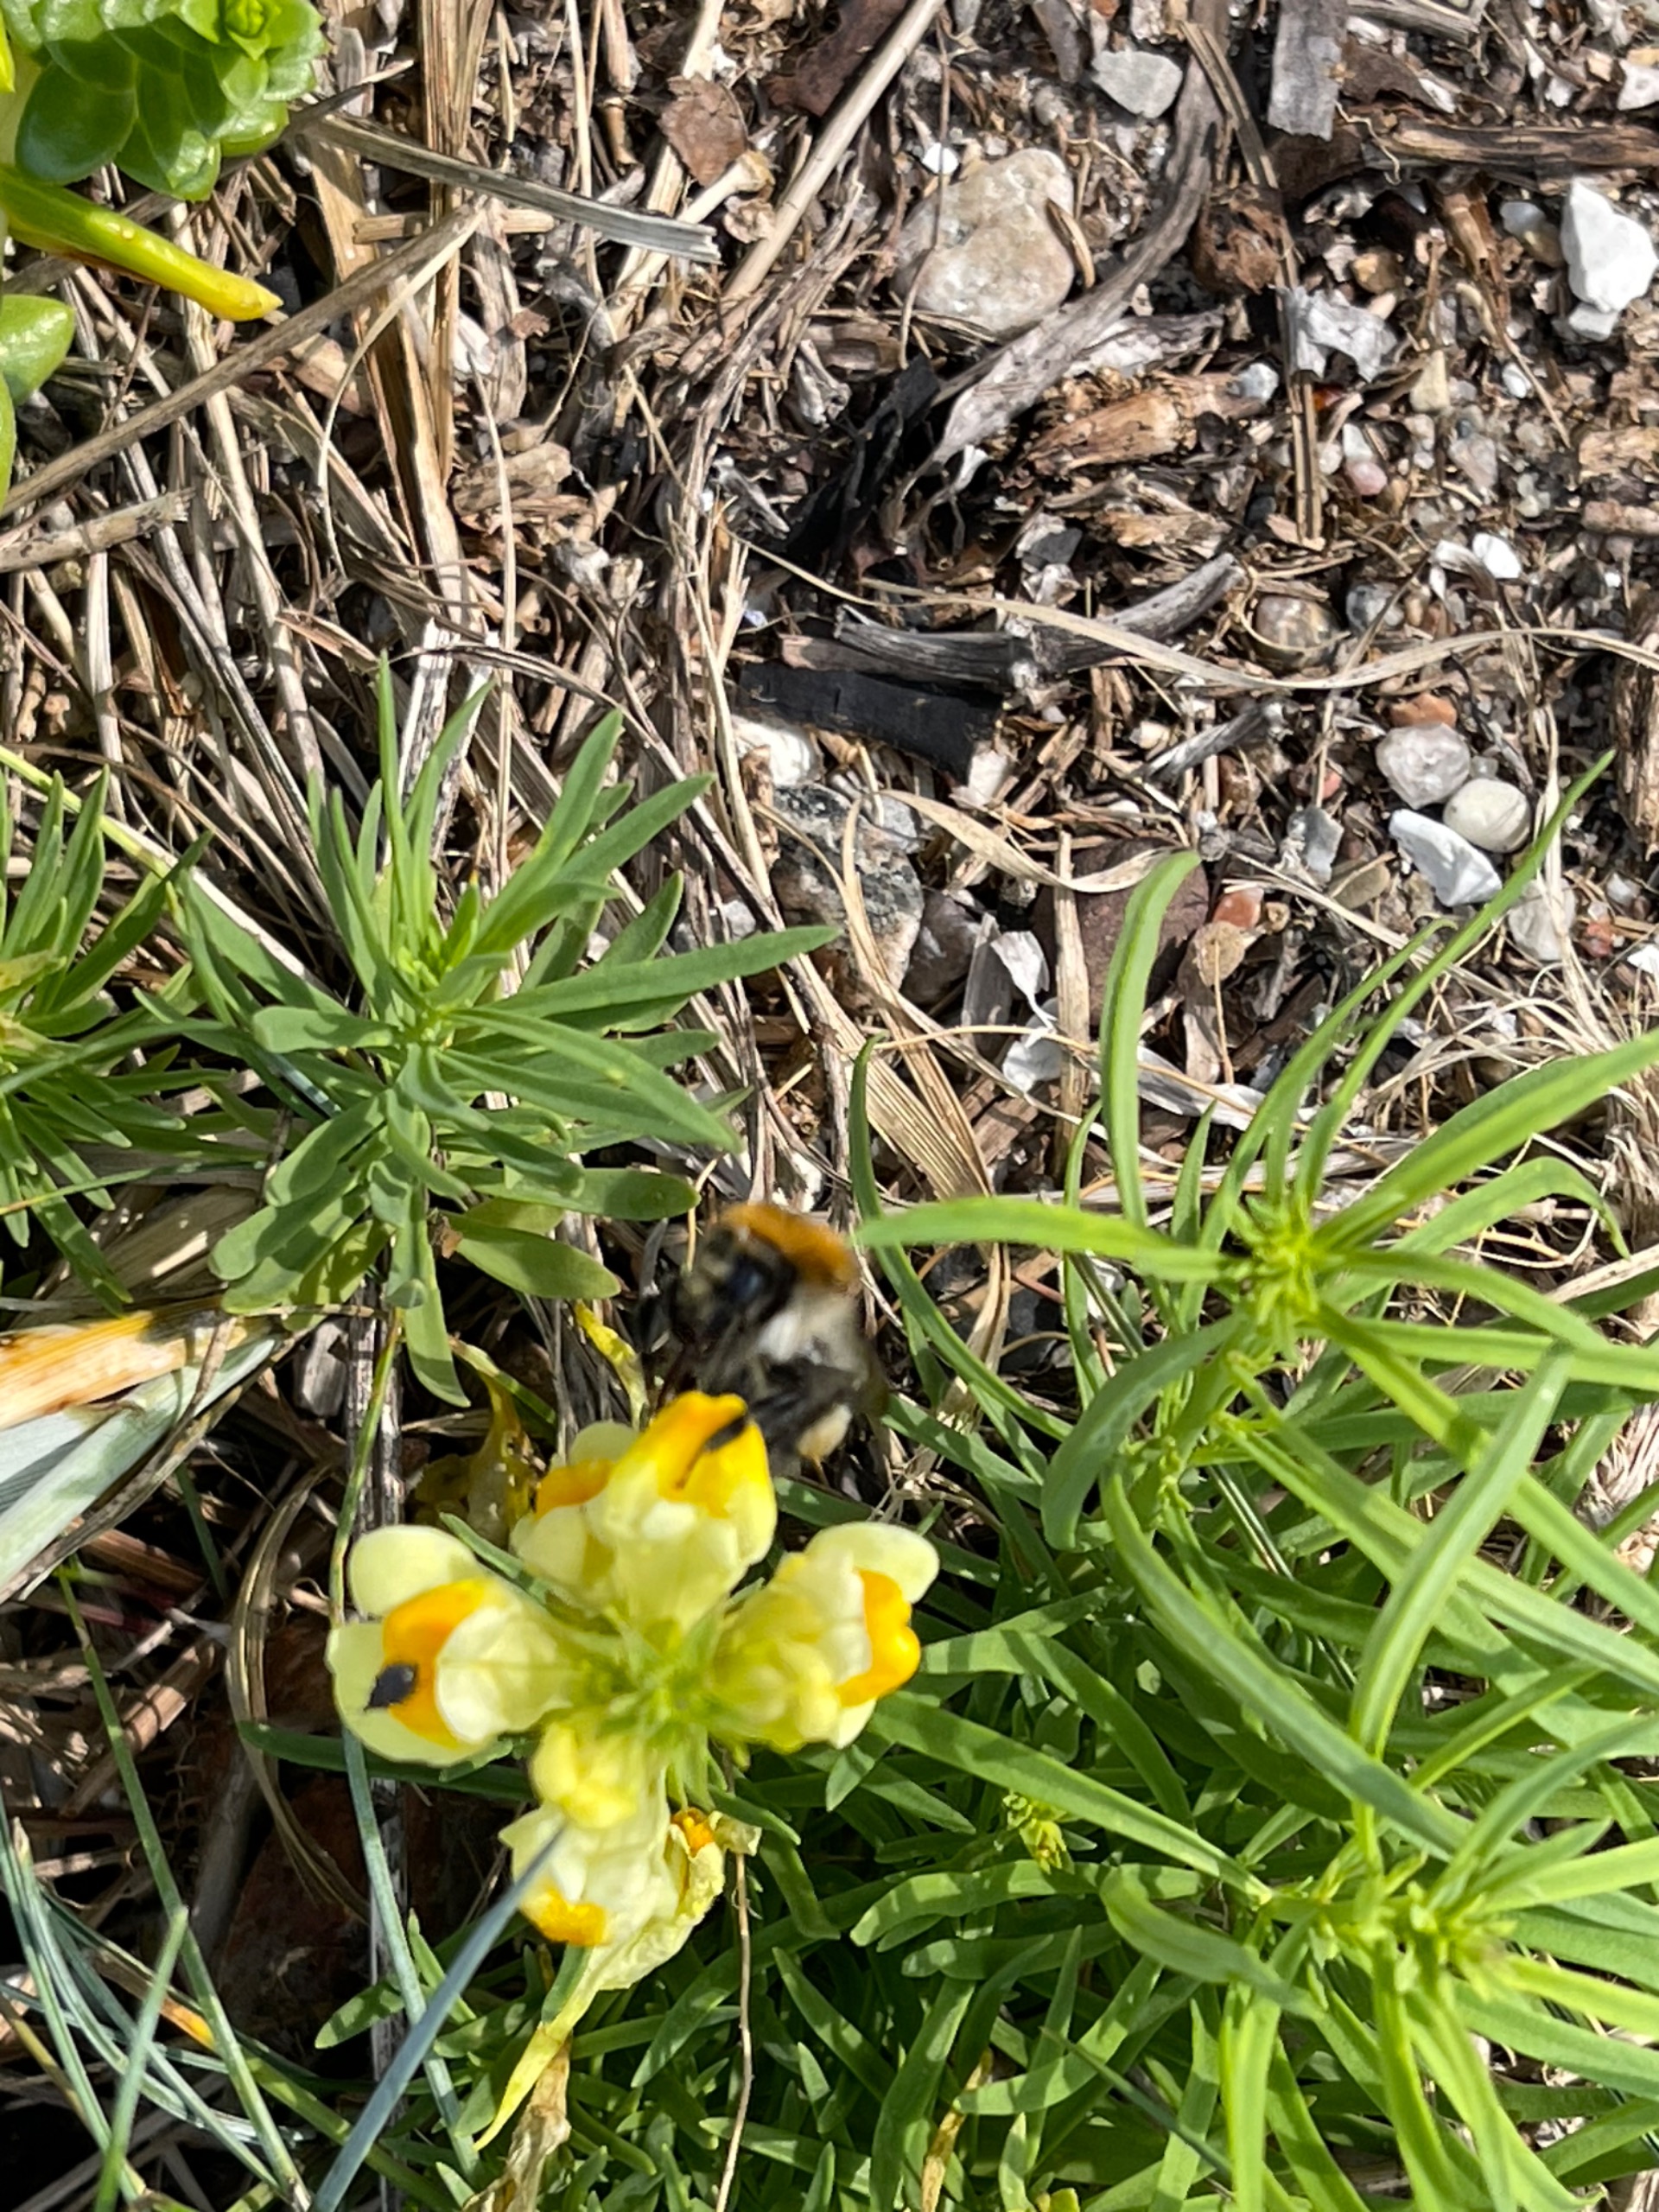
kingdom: Plantae
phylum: Tracheophyta
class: Magnoliopsida
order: Lamiales
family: Plantaginaceae
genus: Linaria
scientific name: Linaria vulgaris
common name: Almindelig torskemund
